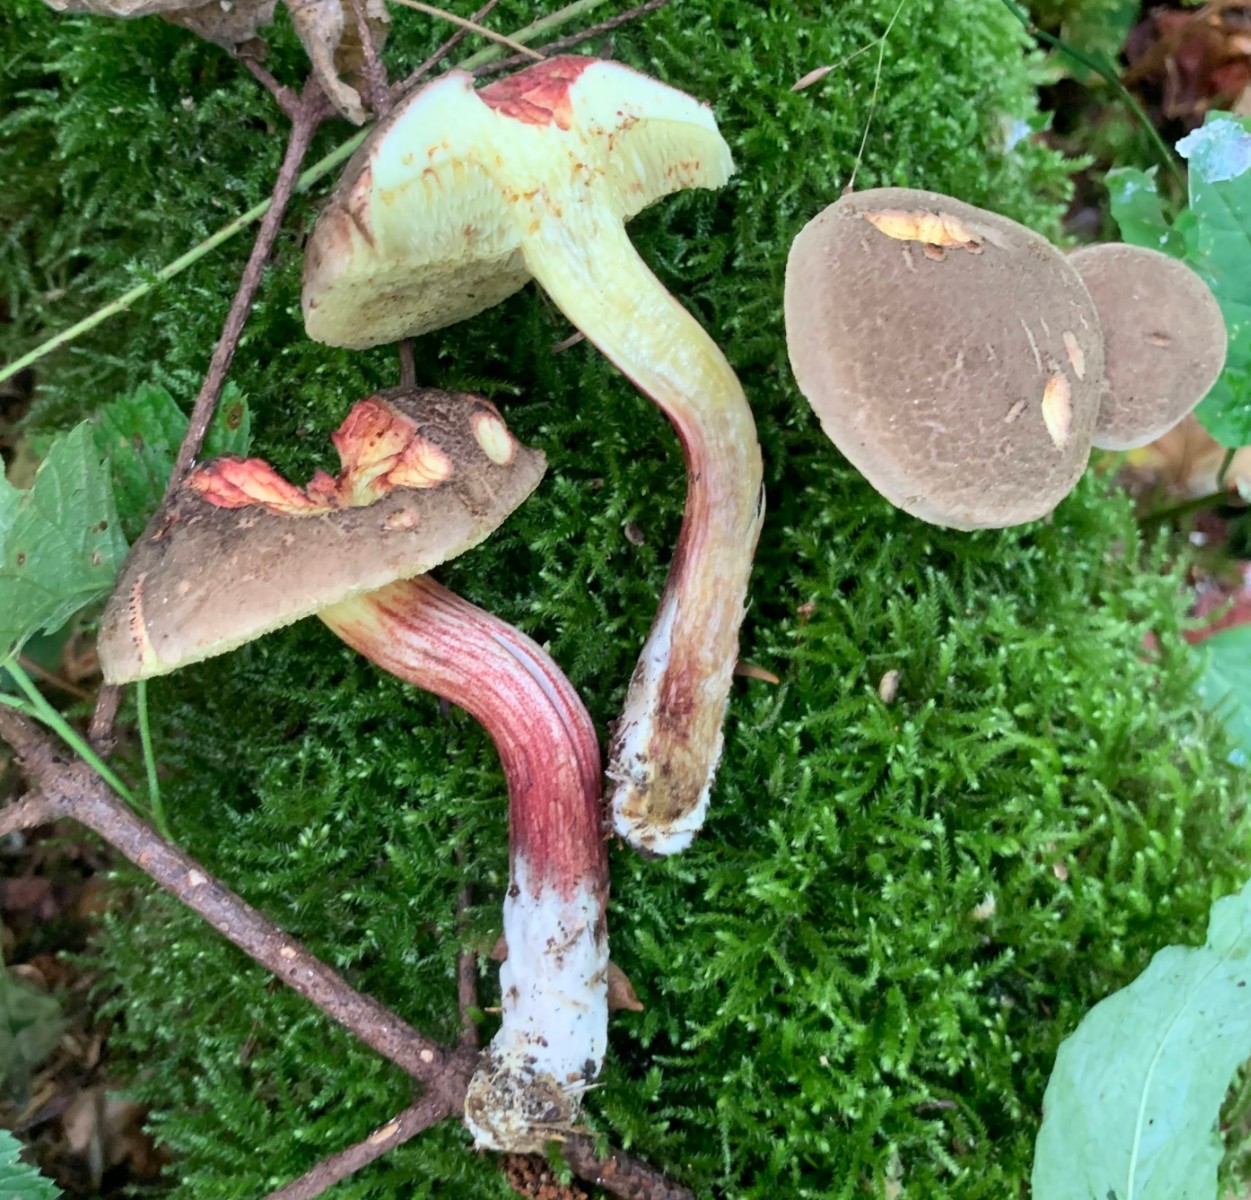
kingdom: Fungi
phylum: Basidiomycota
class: Agaricomycetes
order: Boletales
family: Boletaceae
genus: Xerocomellus
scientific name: Xerocomellus chrysenteron
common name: rødsprukken rørhat
